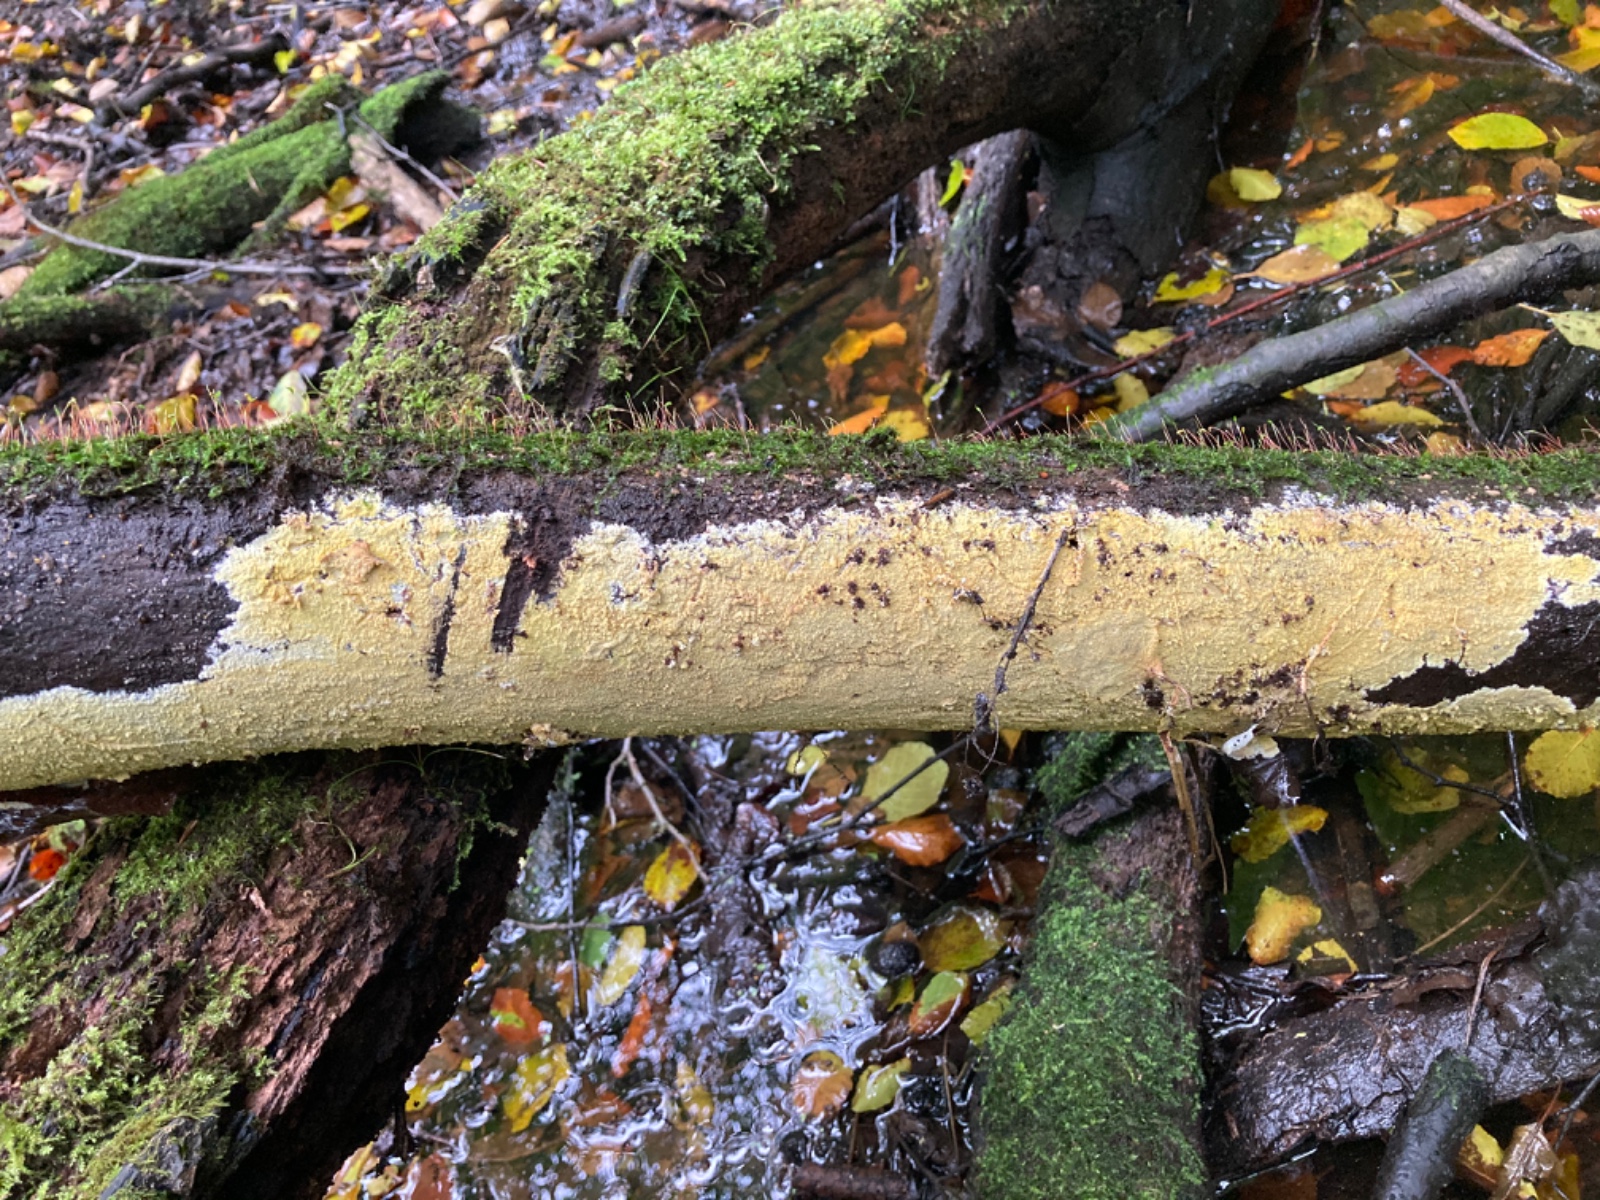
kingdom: Fungi
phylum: Basidiomycota
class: Agaricomycetes
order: Polyporales
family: Meruliaceae
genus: Phlebiodontia
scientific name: Phlebiodontia subochracea
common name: svovl-åresvamp
